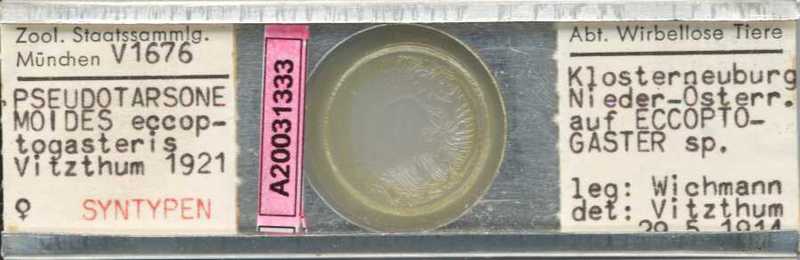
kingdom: Animalia
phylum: Arthropoda
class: Arachnida
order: Trombidiformes
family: Tarsonemidae
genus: Pseudotarsonemoides
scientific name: Pseudotarsonemoides eccoptogasteris
